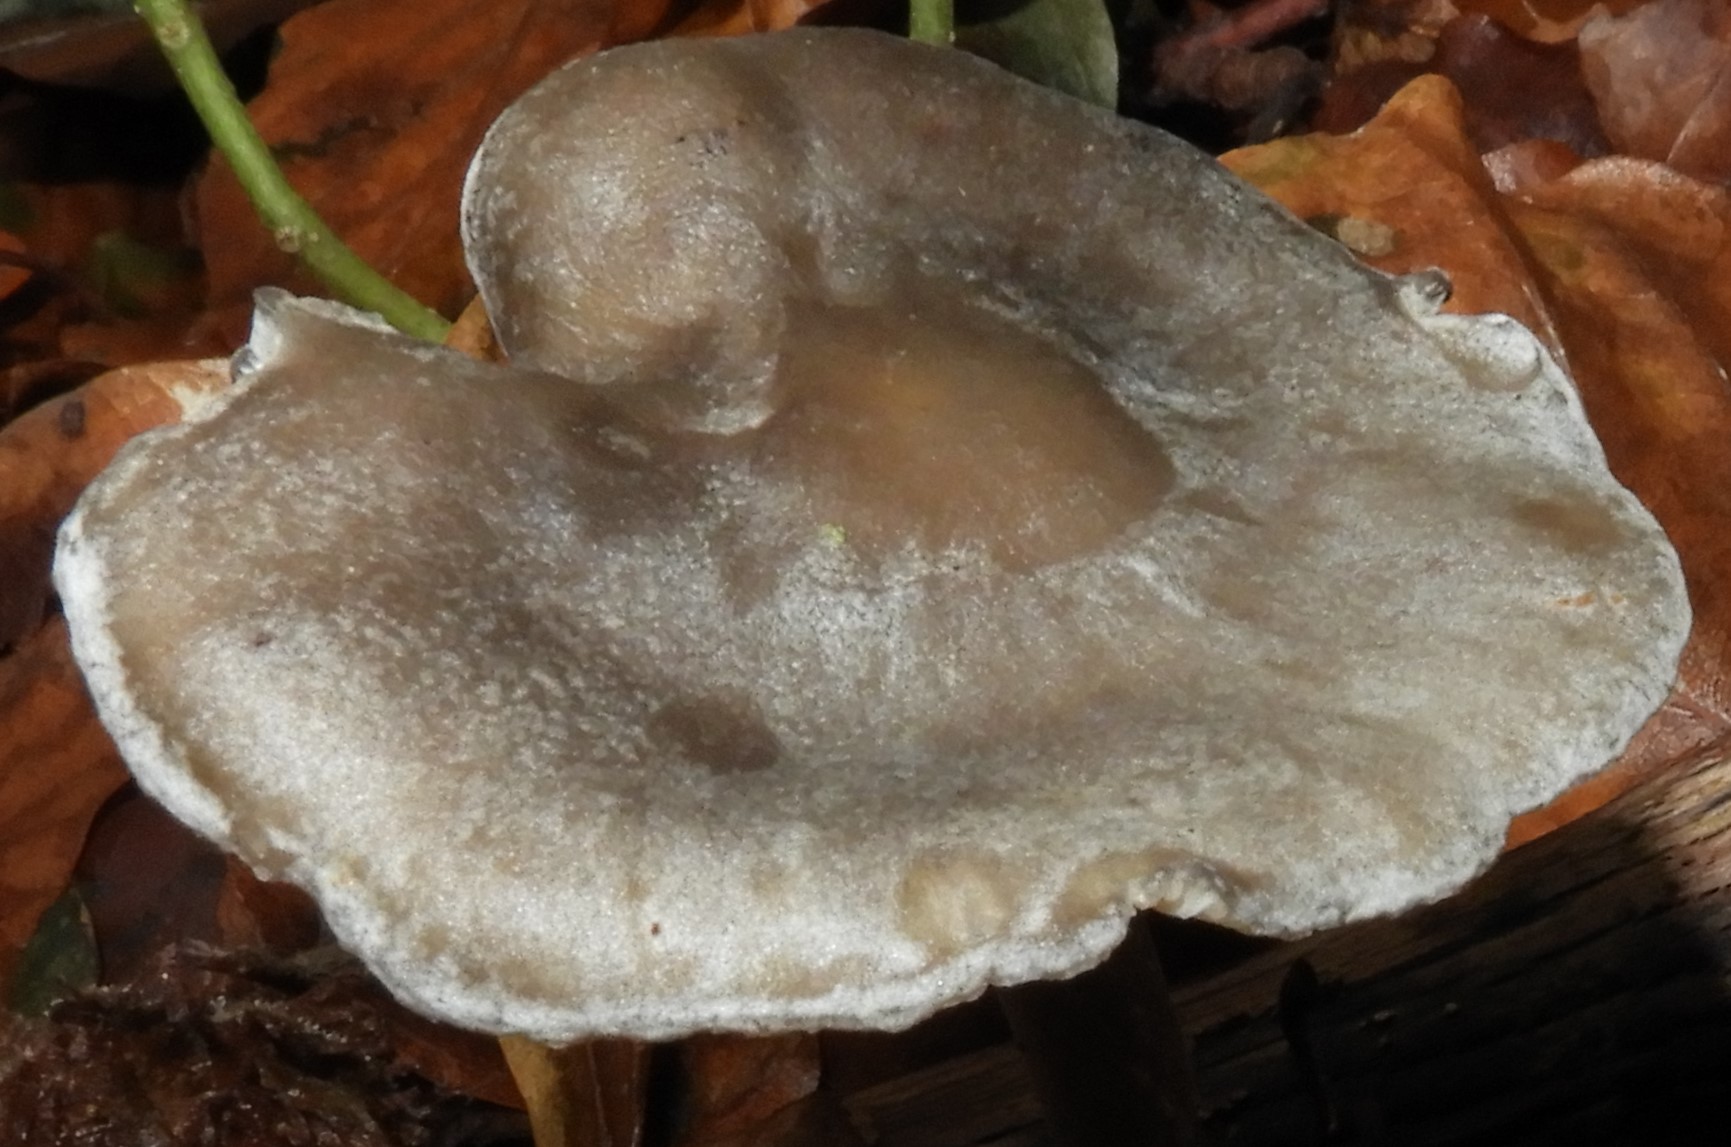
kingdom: Fungi
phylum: Basidiomycota
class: Agaricomycetes
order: Agaricales
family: Lyophyllaceae
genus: Tephrocybe
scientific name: Tephrocybe rancida
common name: mel-gråblad
